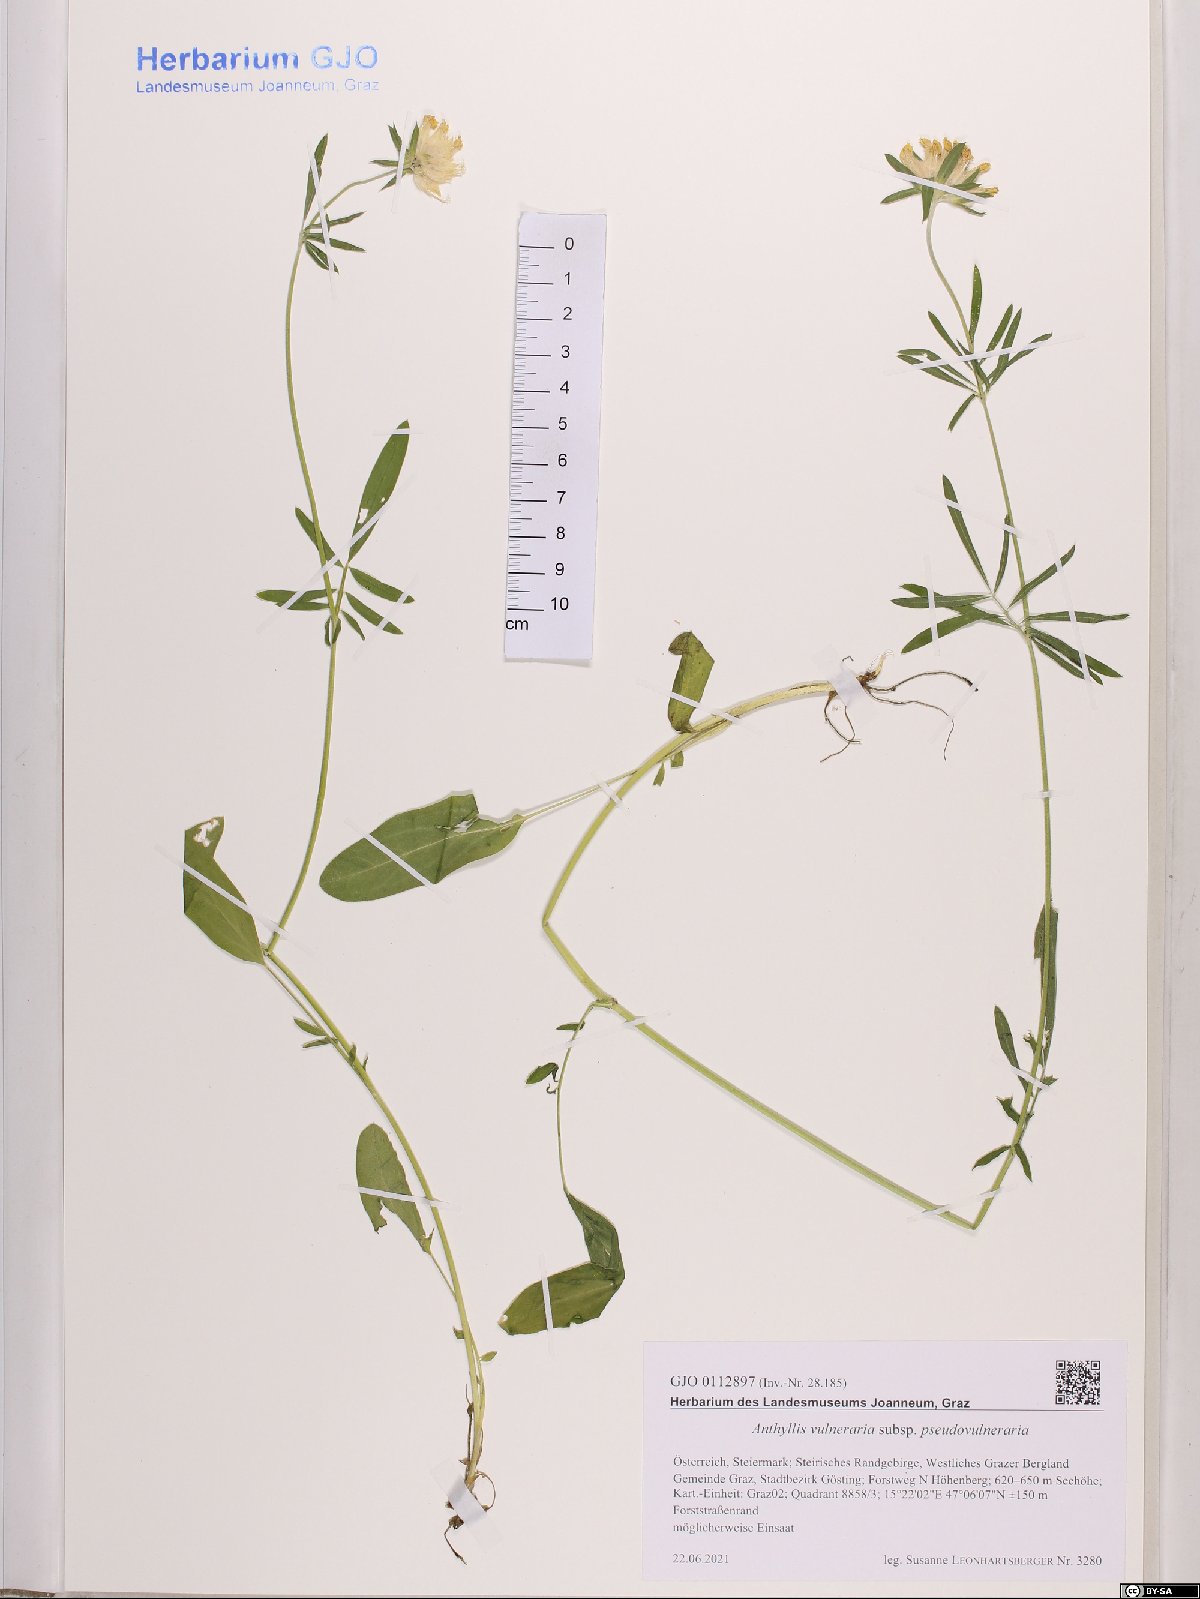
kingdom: Plantae
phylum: Tracheophyta
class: Magnoliopsida
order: Fabales
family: Fabaceae
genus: Anthyllis
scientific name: Anthyllis vulneraria
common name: Kidney vetch
